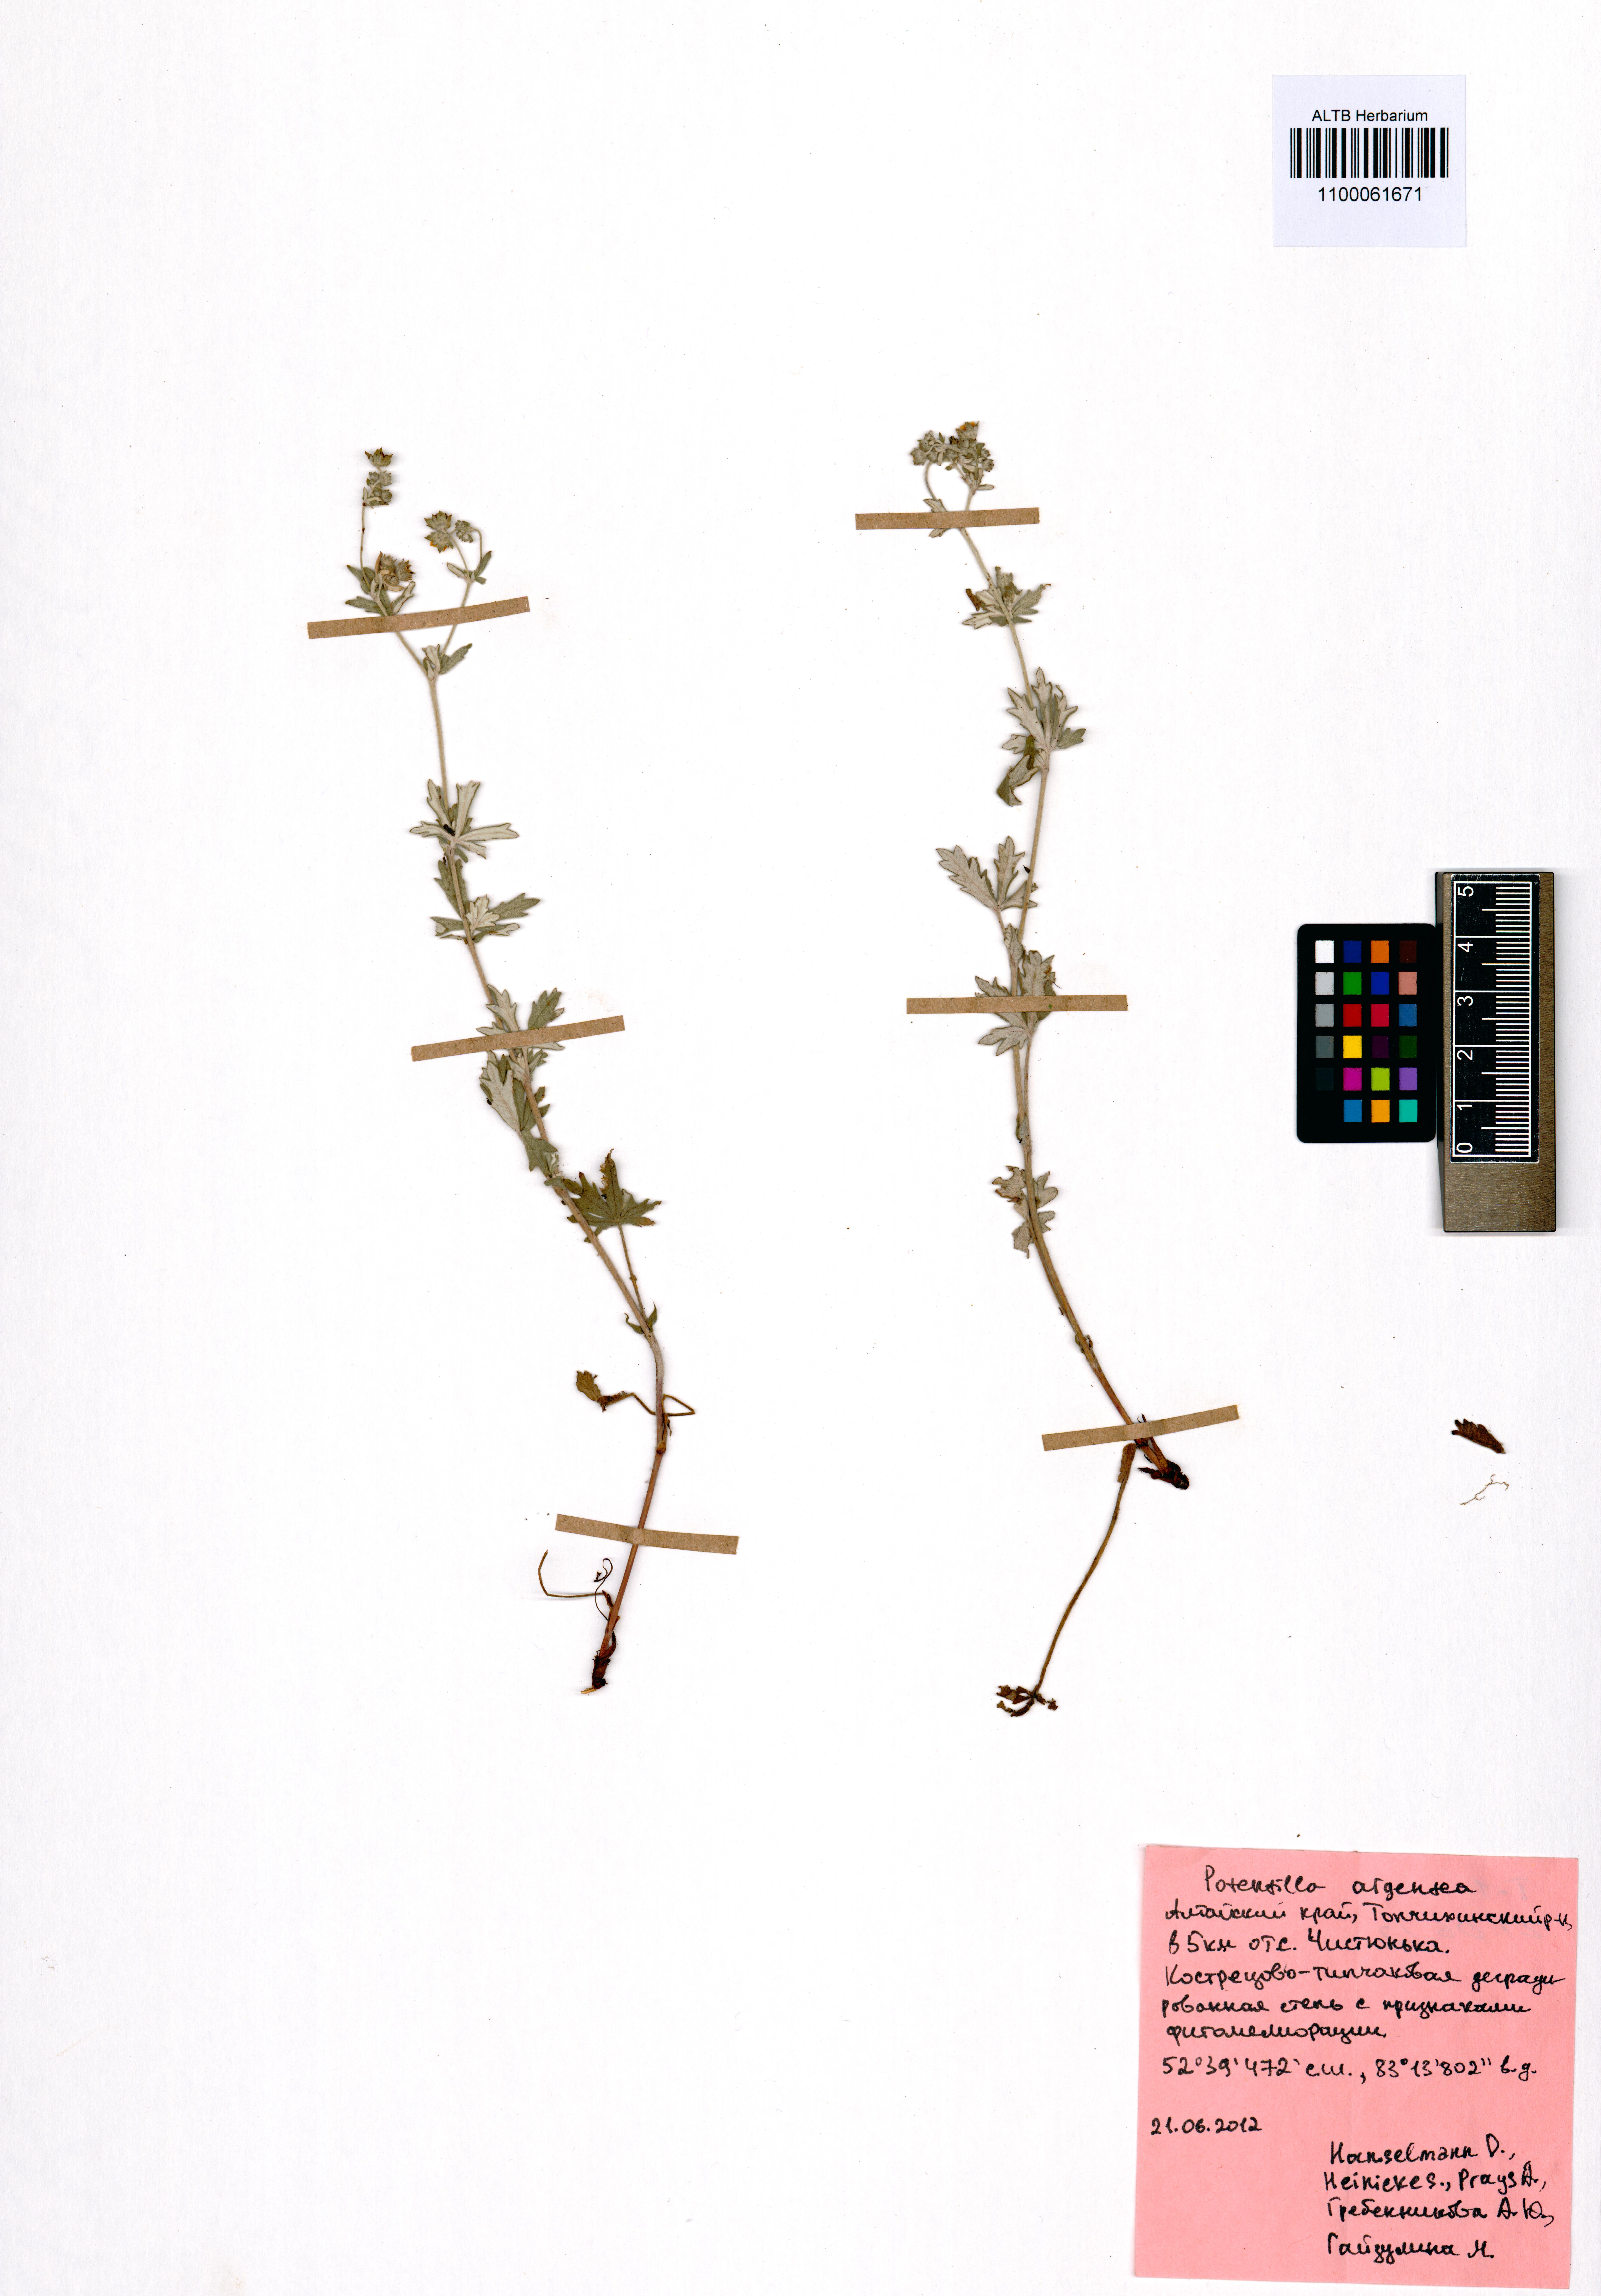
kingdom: Plantae
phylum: Tracheophyta
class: Magnoliopsida
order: Rosales
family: Rosaceae
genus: Potentilla
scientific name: Potentilla argentea
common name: Hoary cinquefoil
